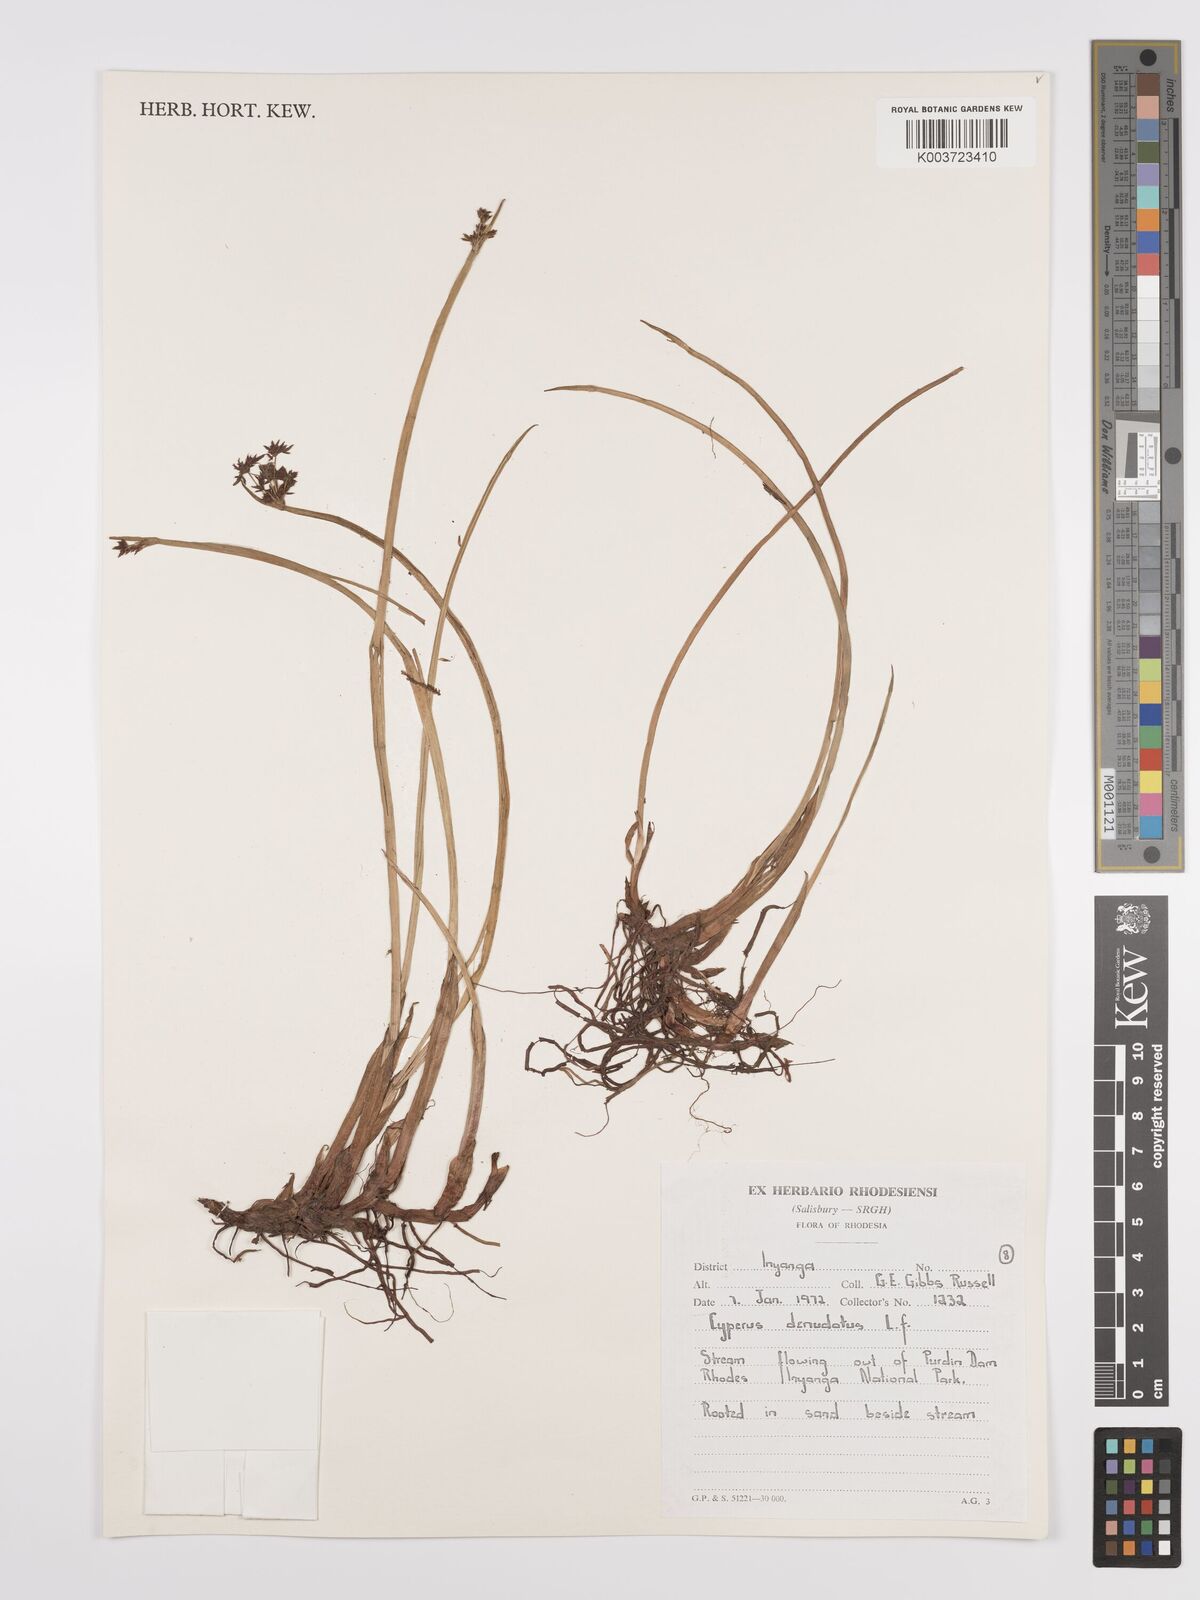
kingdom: Plantae
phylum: Tracheophyta
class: Liliopsida
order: Poales
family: Cyperaceae
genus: Cyperus
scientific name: Cyperus denudatus
